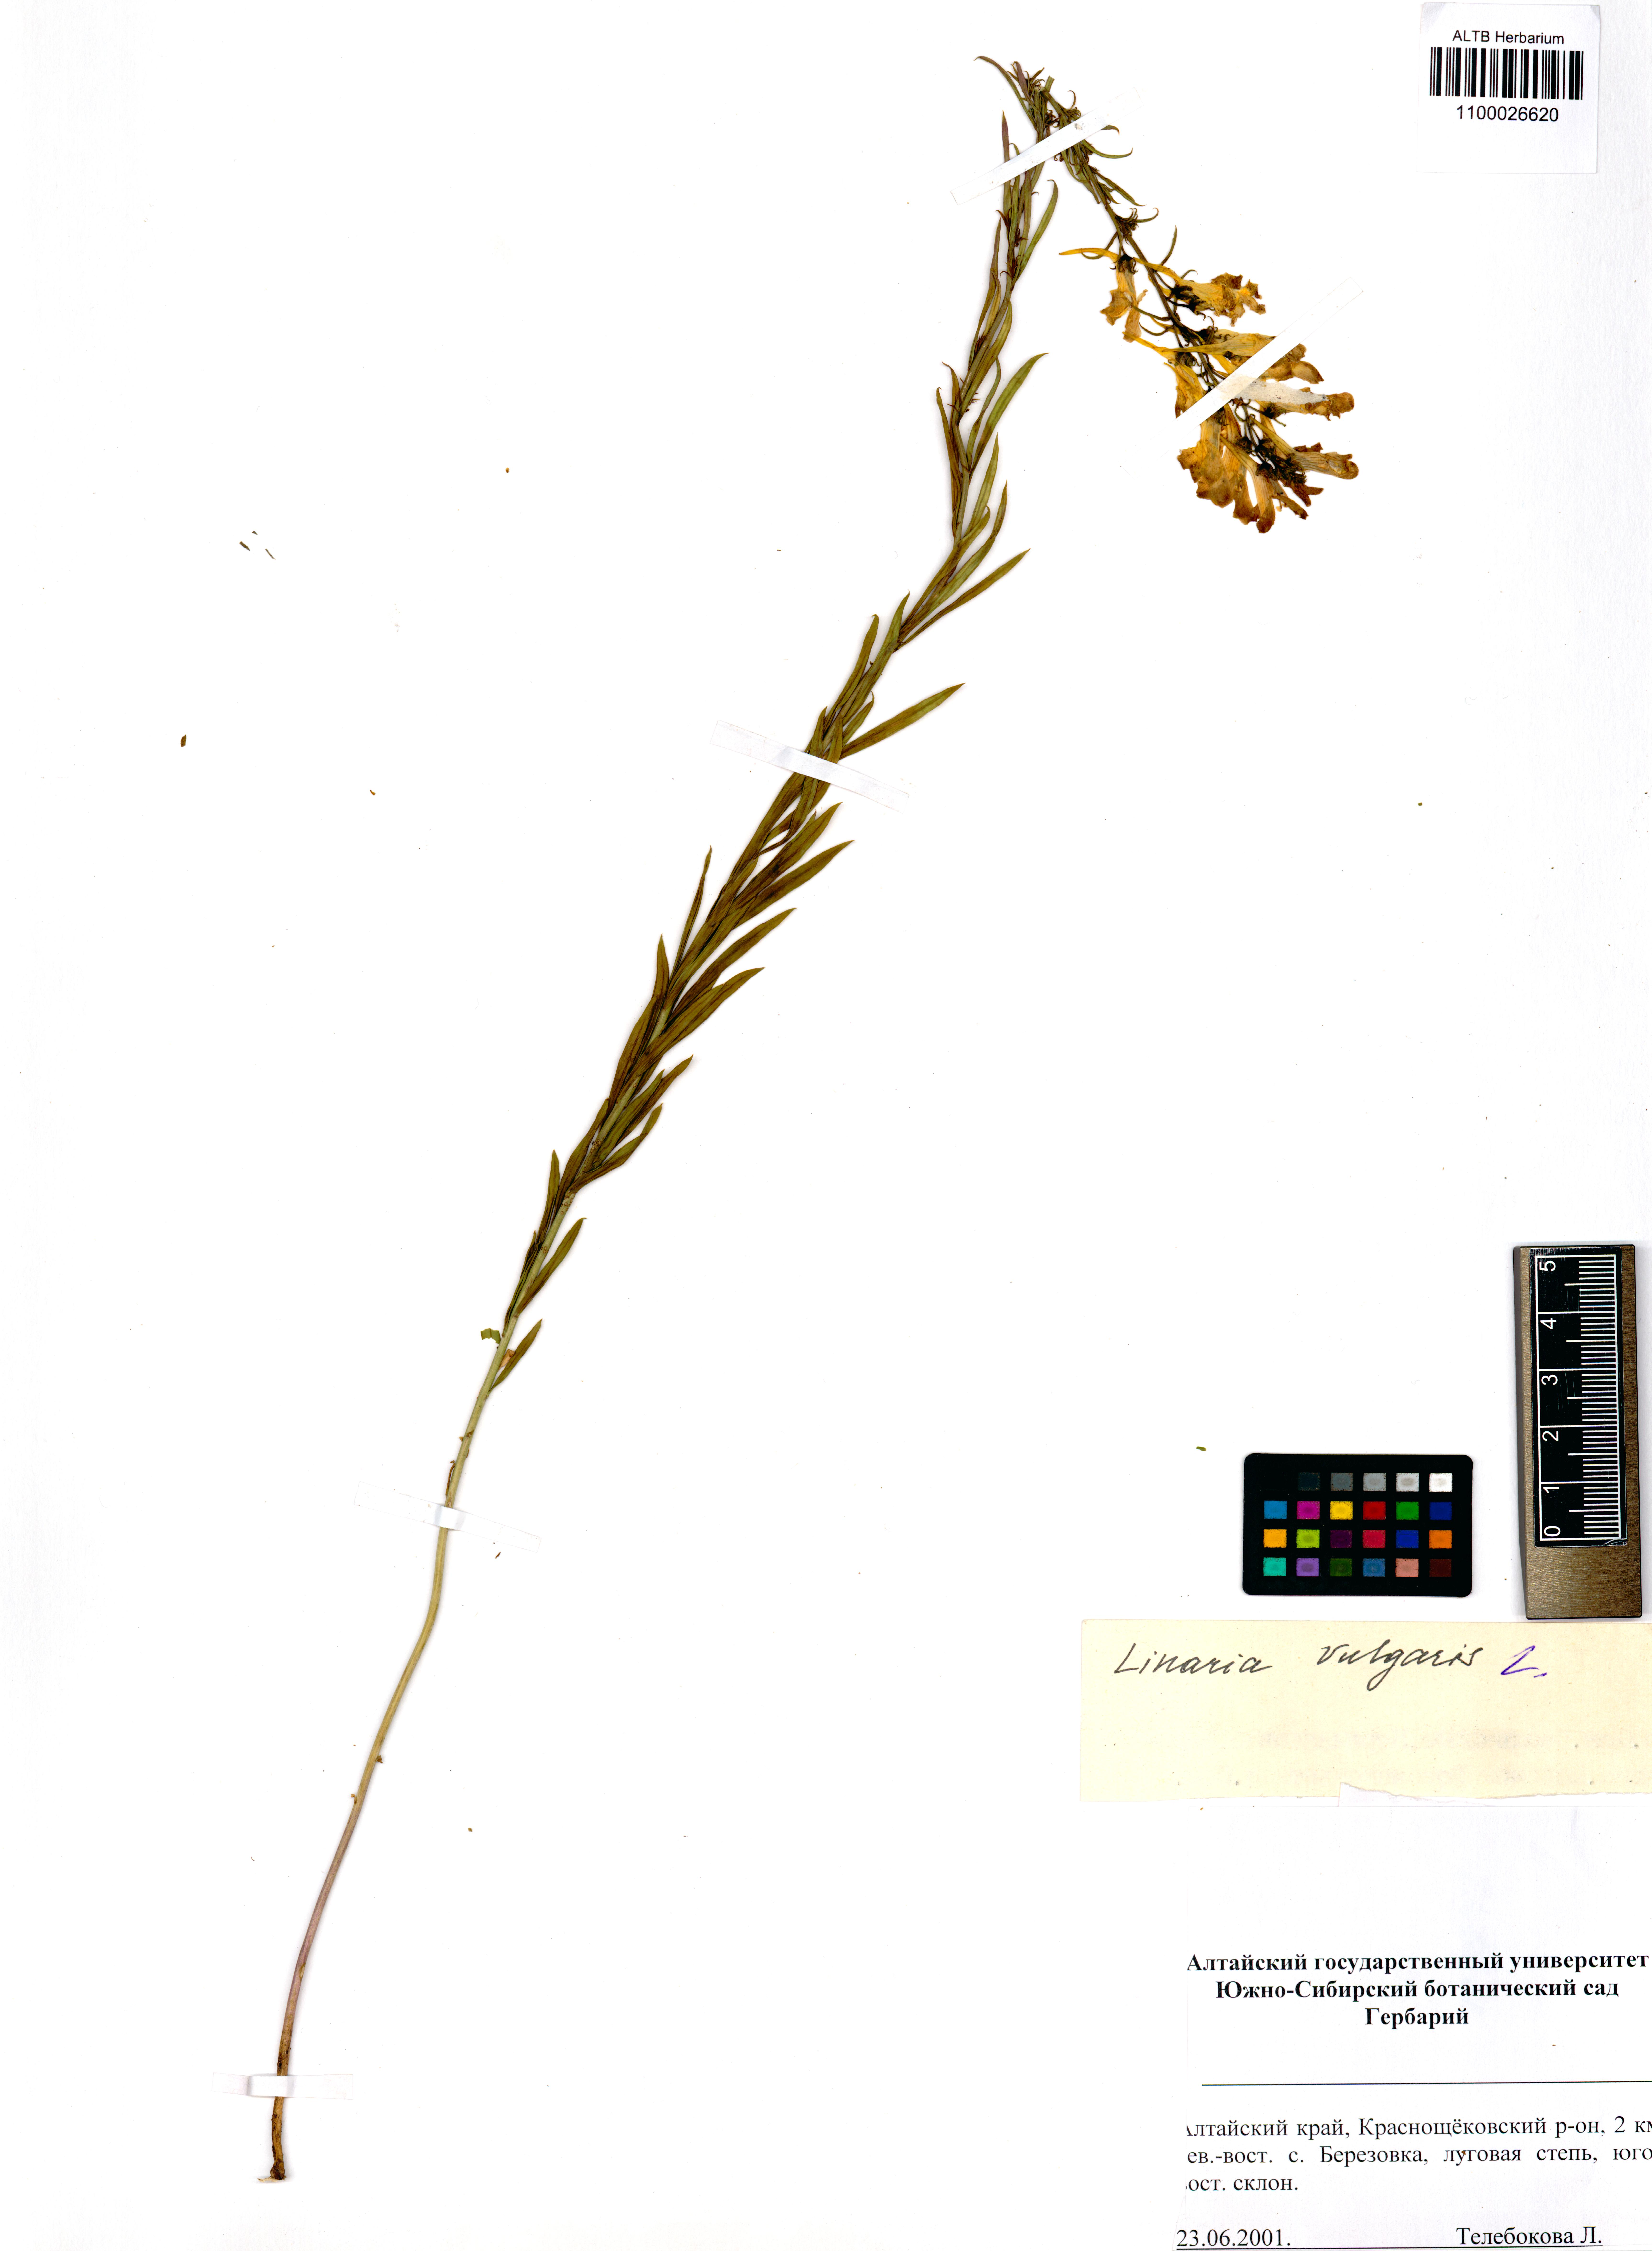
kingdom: Plantae
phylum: Tracheophyta
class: Magnoliopsida
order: Lamiales
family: Plantaginaceae
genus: Linaria
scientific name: Linaria vulgaris
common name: Butter and eggs
